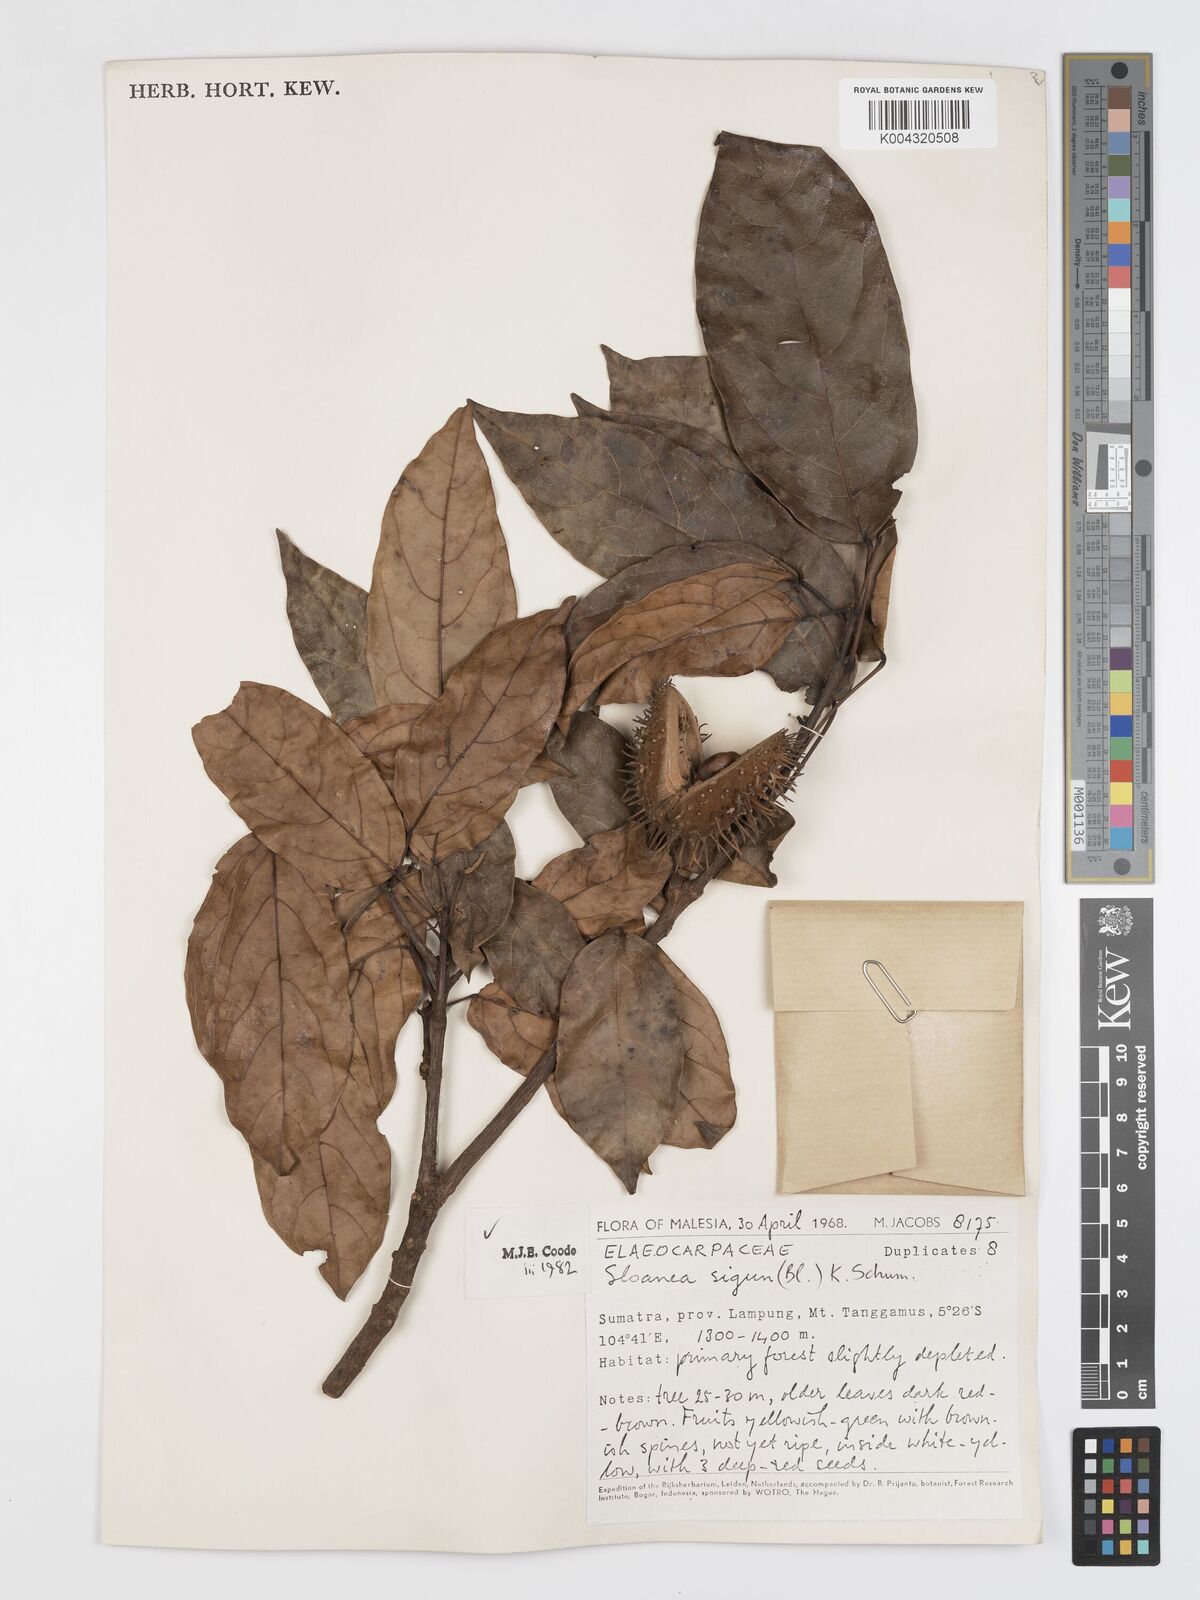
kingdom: Plantae
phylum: Tracheophyta
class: Magnoliopsida
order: Oxalidales
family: Elaeocarpaceae
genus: Sloanea
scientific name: Sloanea sigun
